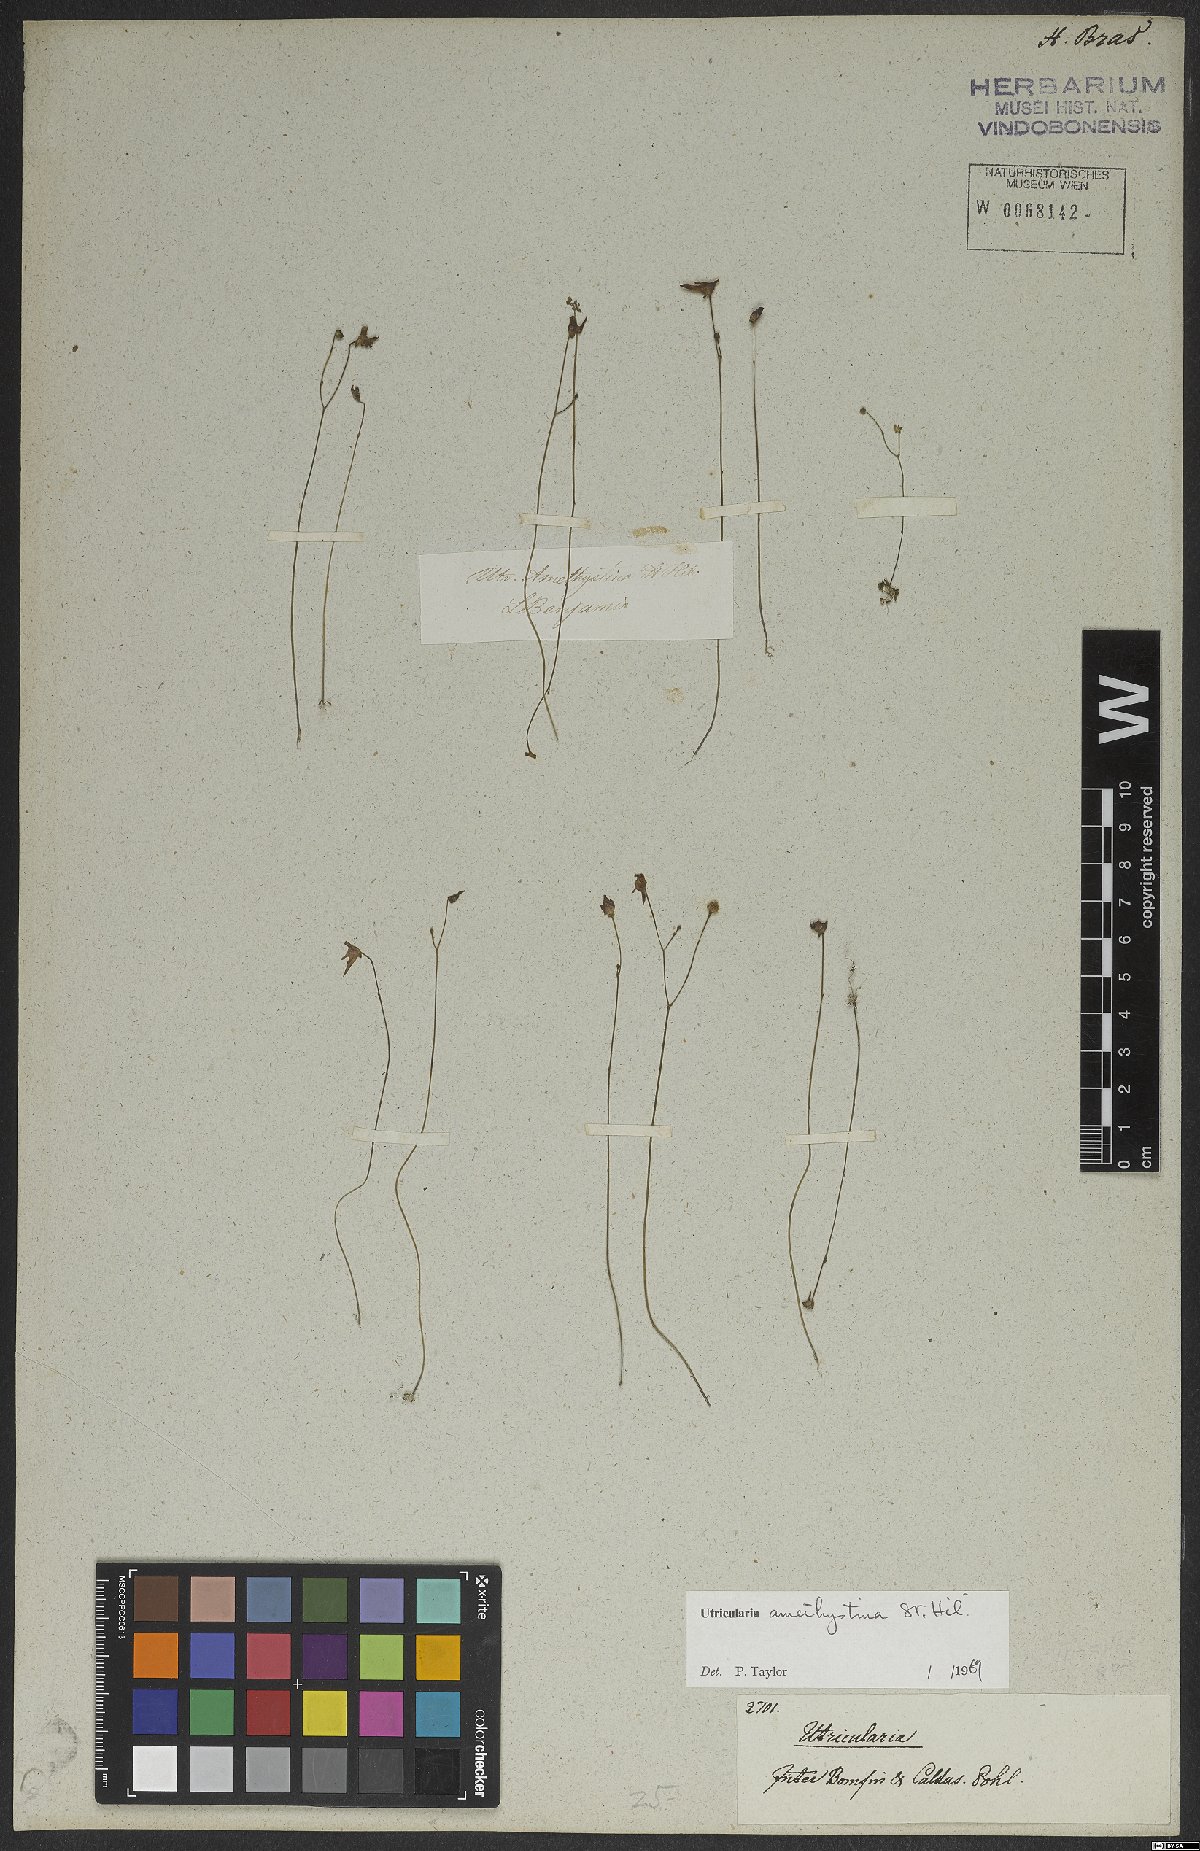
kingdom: Plantae
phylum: Tracheophyta
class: Magnoliopsida
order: Lamiales
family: Lentibulariaceae
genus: Utricularia
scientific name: Utricularia amethystina
